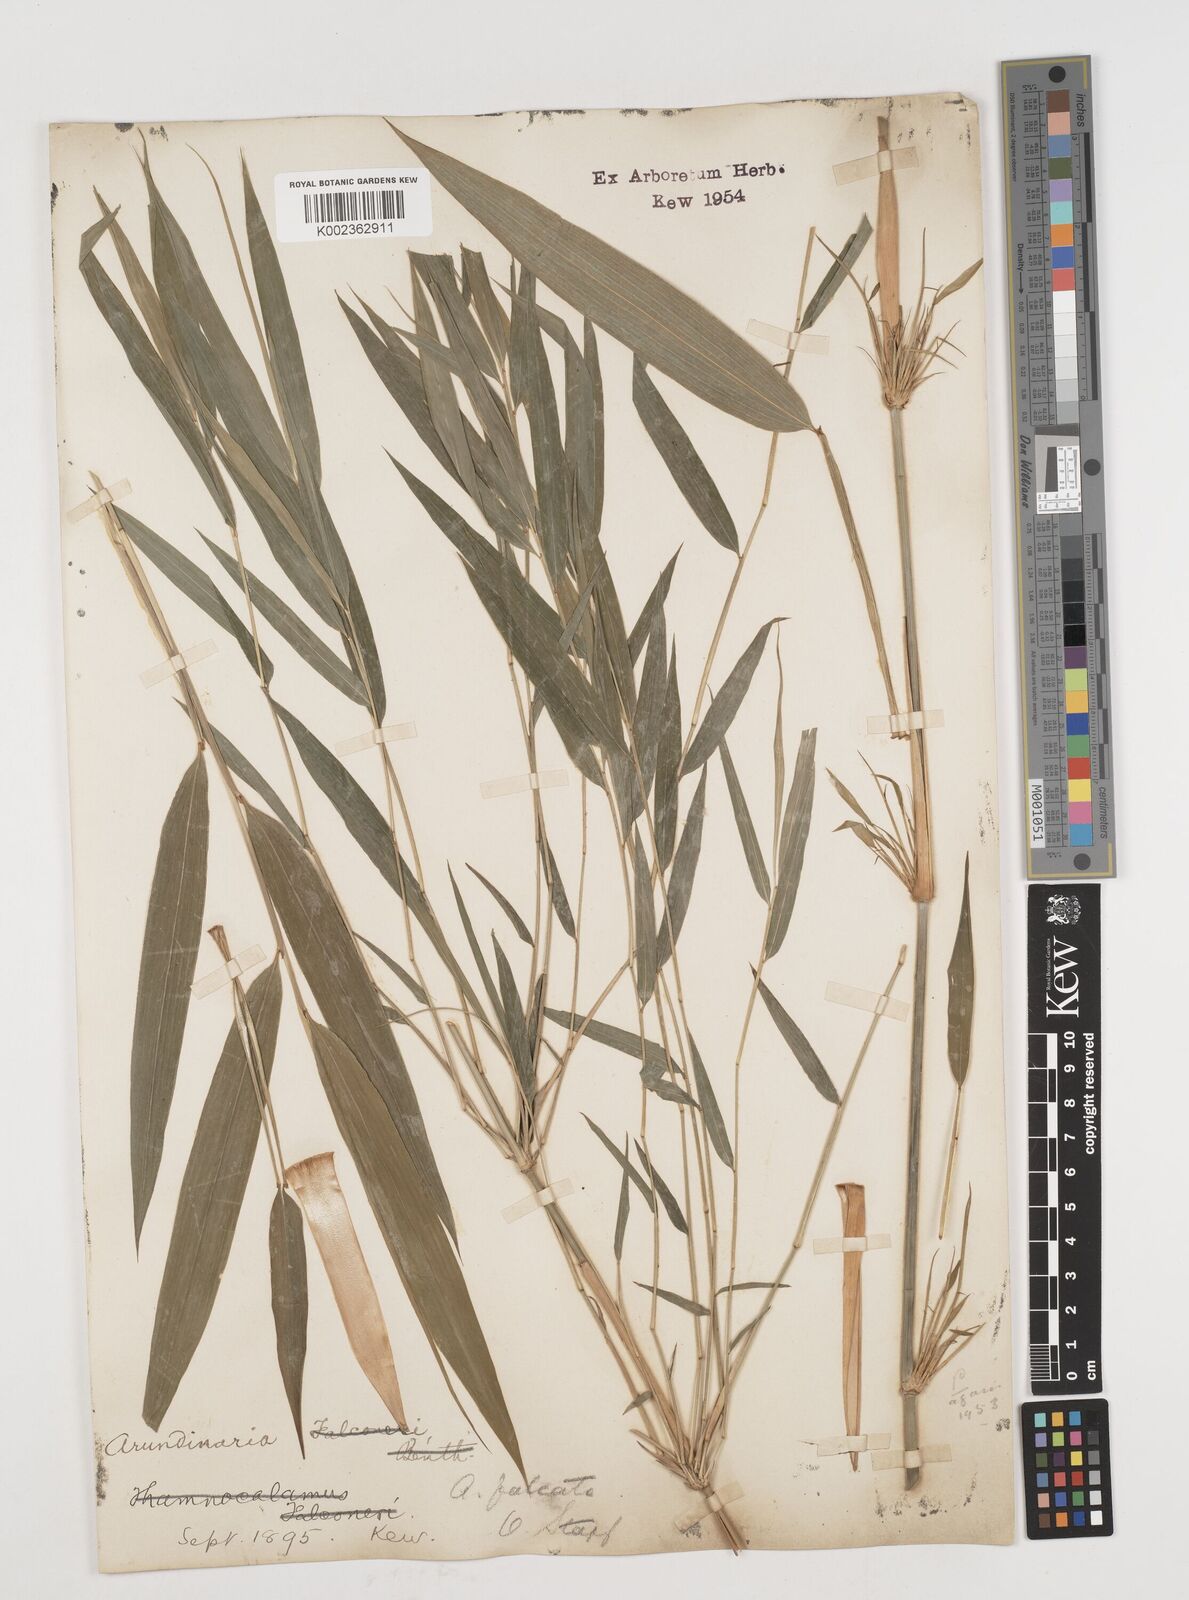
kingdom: Plantae
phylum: Tracheophyta
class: Liliopsida
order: Poales
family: Poaceae
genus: Drepanostachyum
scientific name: Drepanostachyum falcatum
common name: Himalayan bamboo
